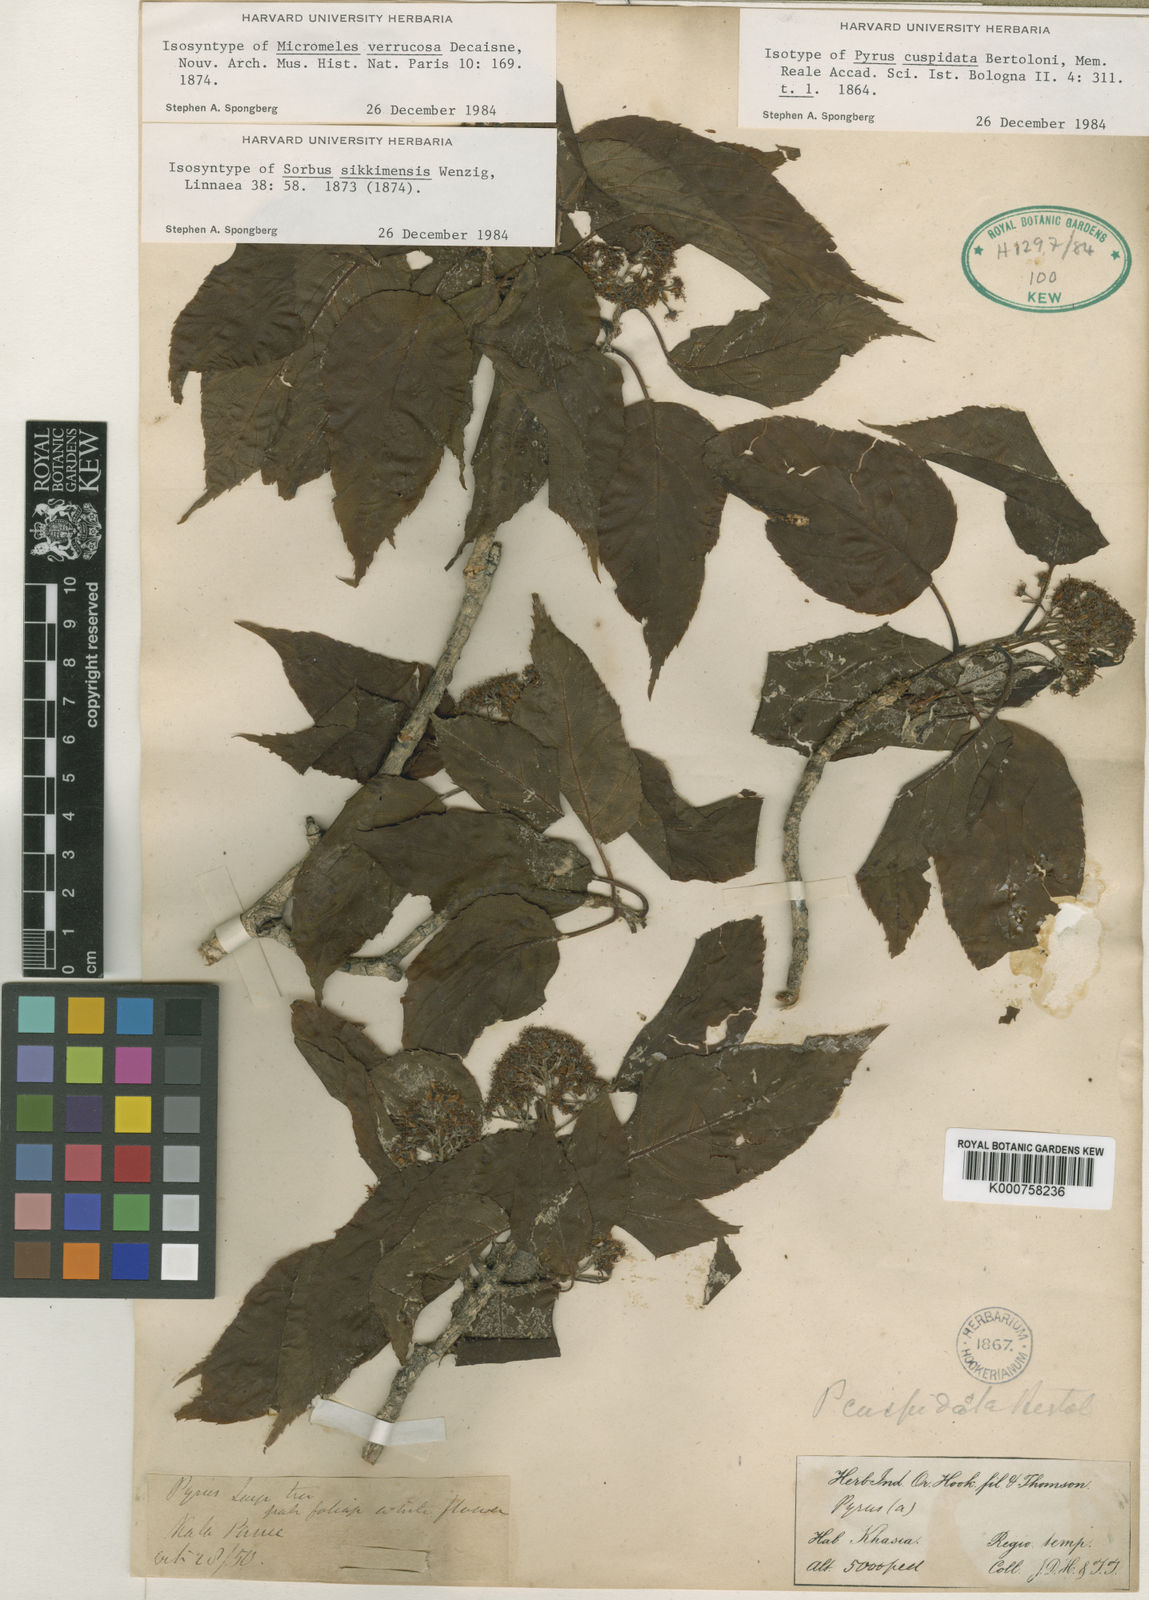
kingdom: Plantae
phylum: Tracheophyta
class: Magnoliopsida
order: Rosales
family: Rosaceae
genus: Micromeles
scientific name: Micromeles cuspidata
